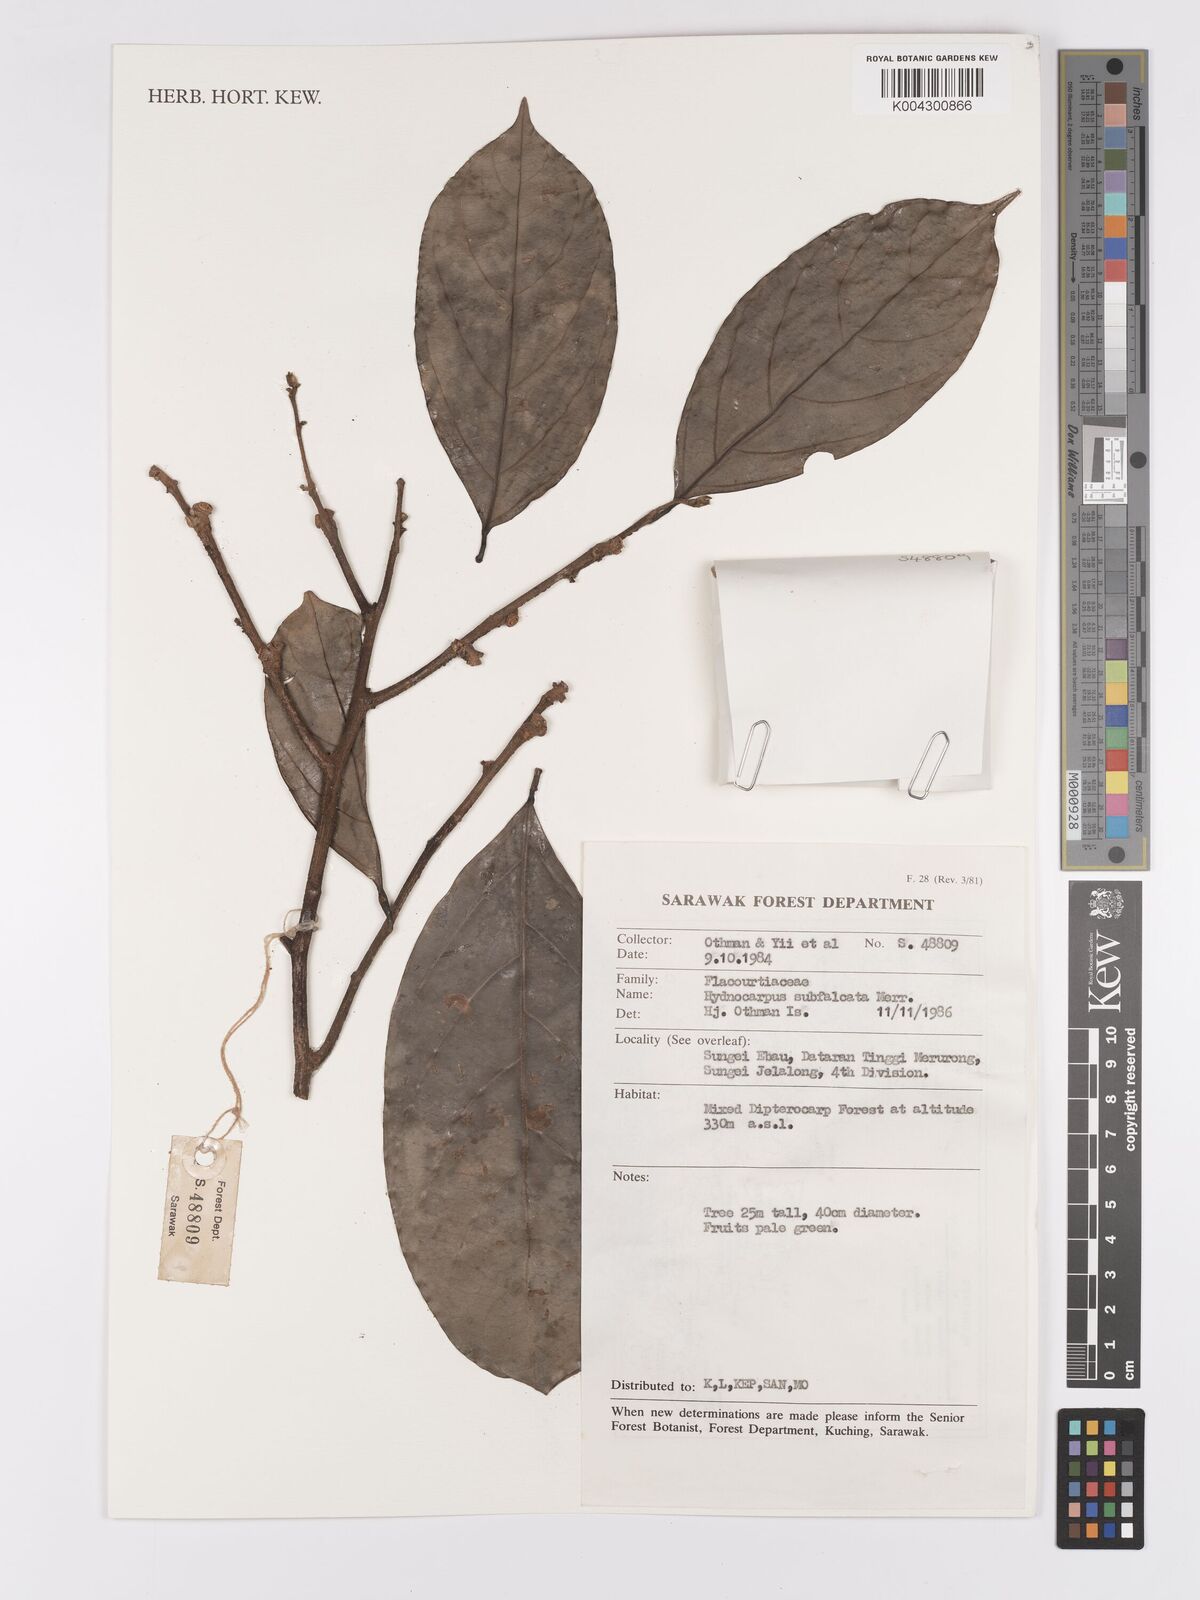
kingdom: Plantae
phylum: Tracheophyta
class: Magnoliopsida
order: Malpighiales
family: Achariaceae
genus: Hydnocarpus
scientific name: Hydnocarpus subfalcatus
